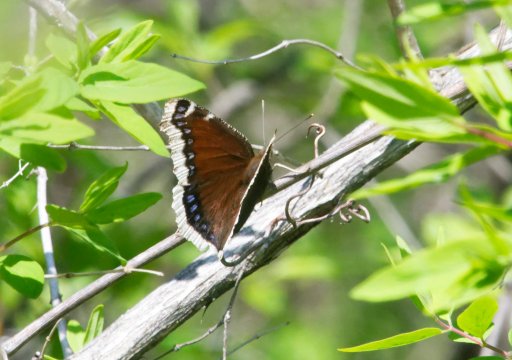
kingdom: Animalia
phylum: Arthropoda
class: Insecta
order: Lepidoptera
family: Nymphalidae
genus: Nymphalis
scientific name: Nymphalis antiopa
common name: Mourning Cloak
